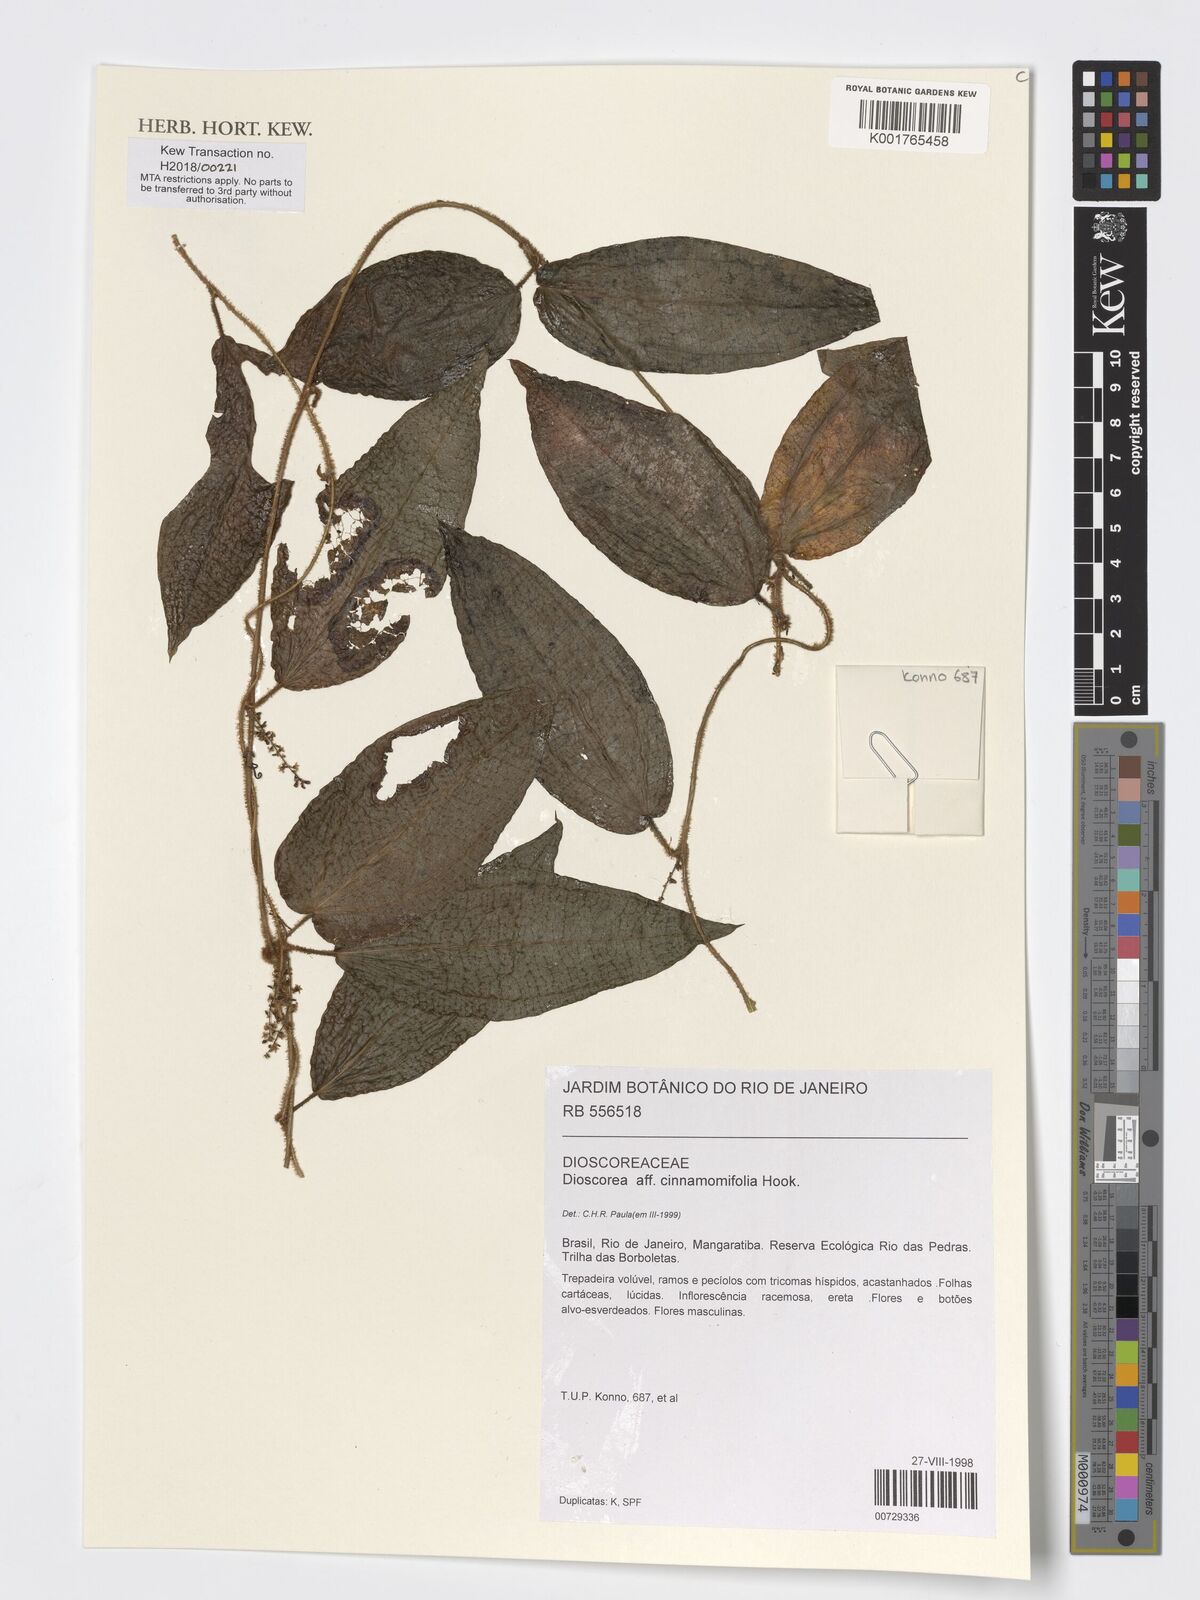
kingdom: Plantae
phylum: Tracheophyta
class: Liliopsida
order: Dioscoreales
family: Dioscoreaceae
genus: Dioscorea
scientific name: Dioscorea cinnamomifolia
